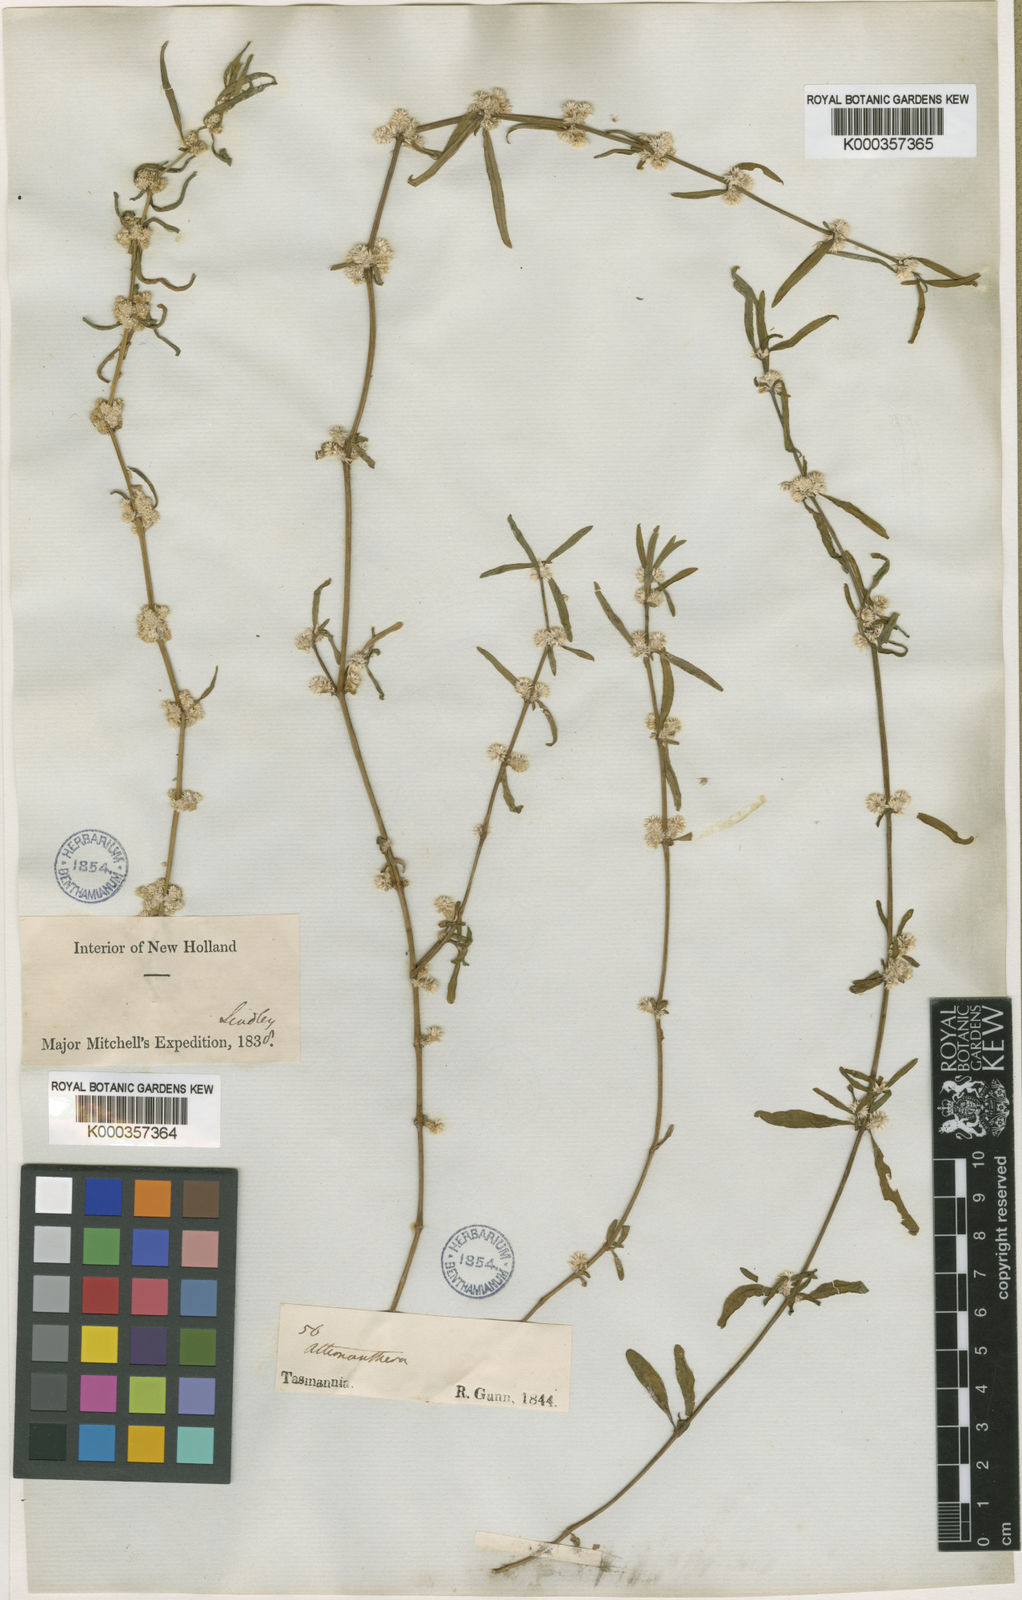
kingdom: Plantae
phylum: Tracheophyta
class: Magnoliopsida
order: Caryophyllales
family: Amaranthaceae
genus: Alternanthera
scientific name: Alternanthera denticulata
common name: Lesser joyweed
